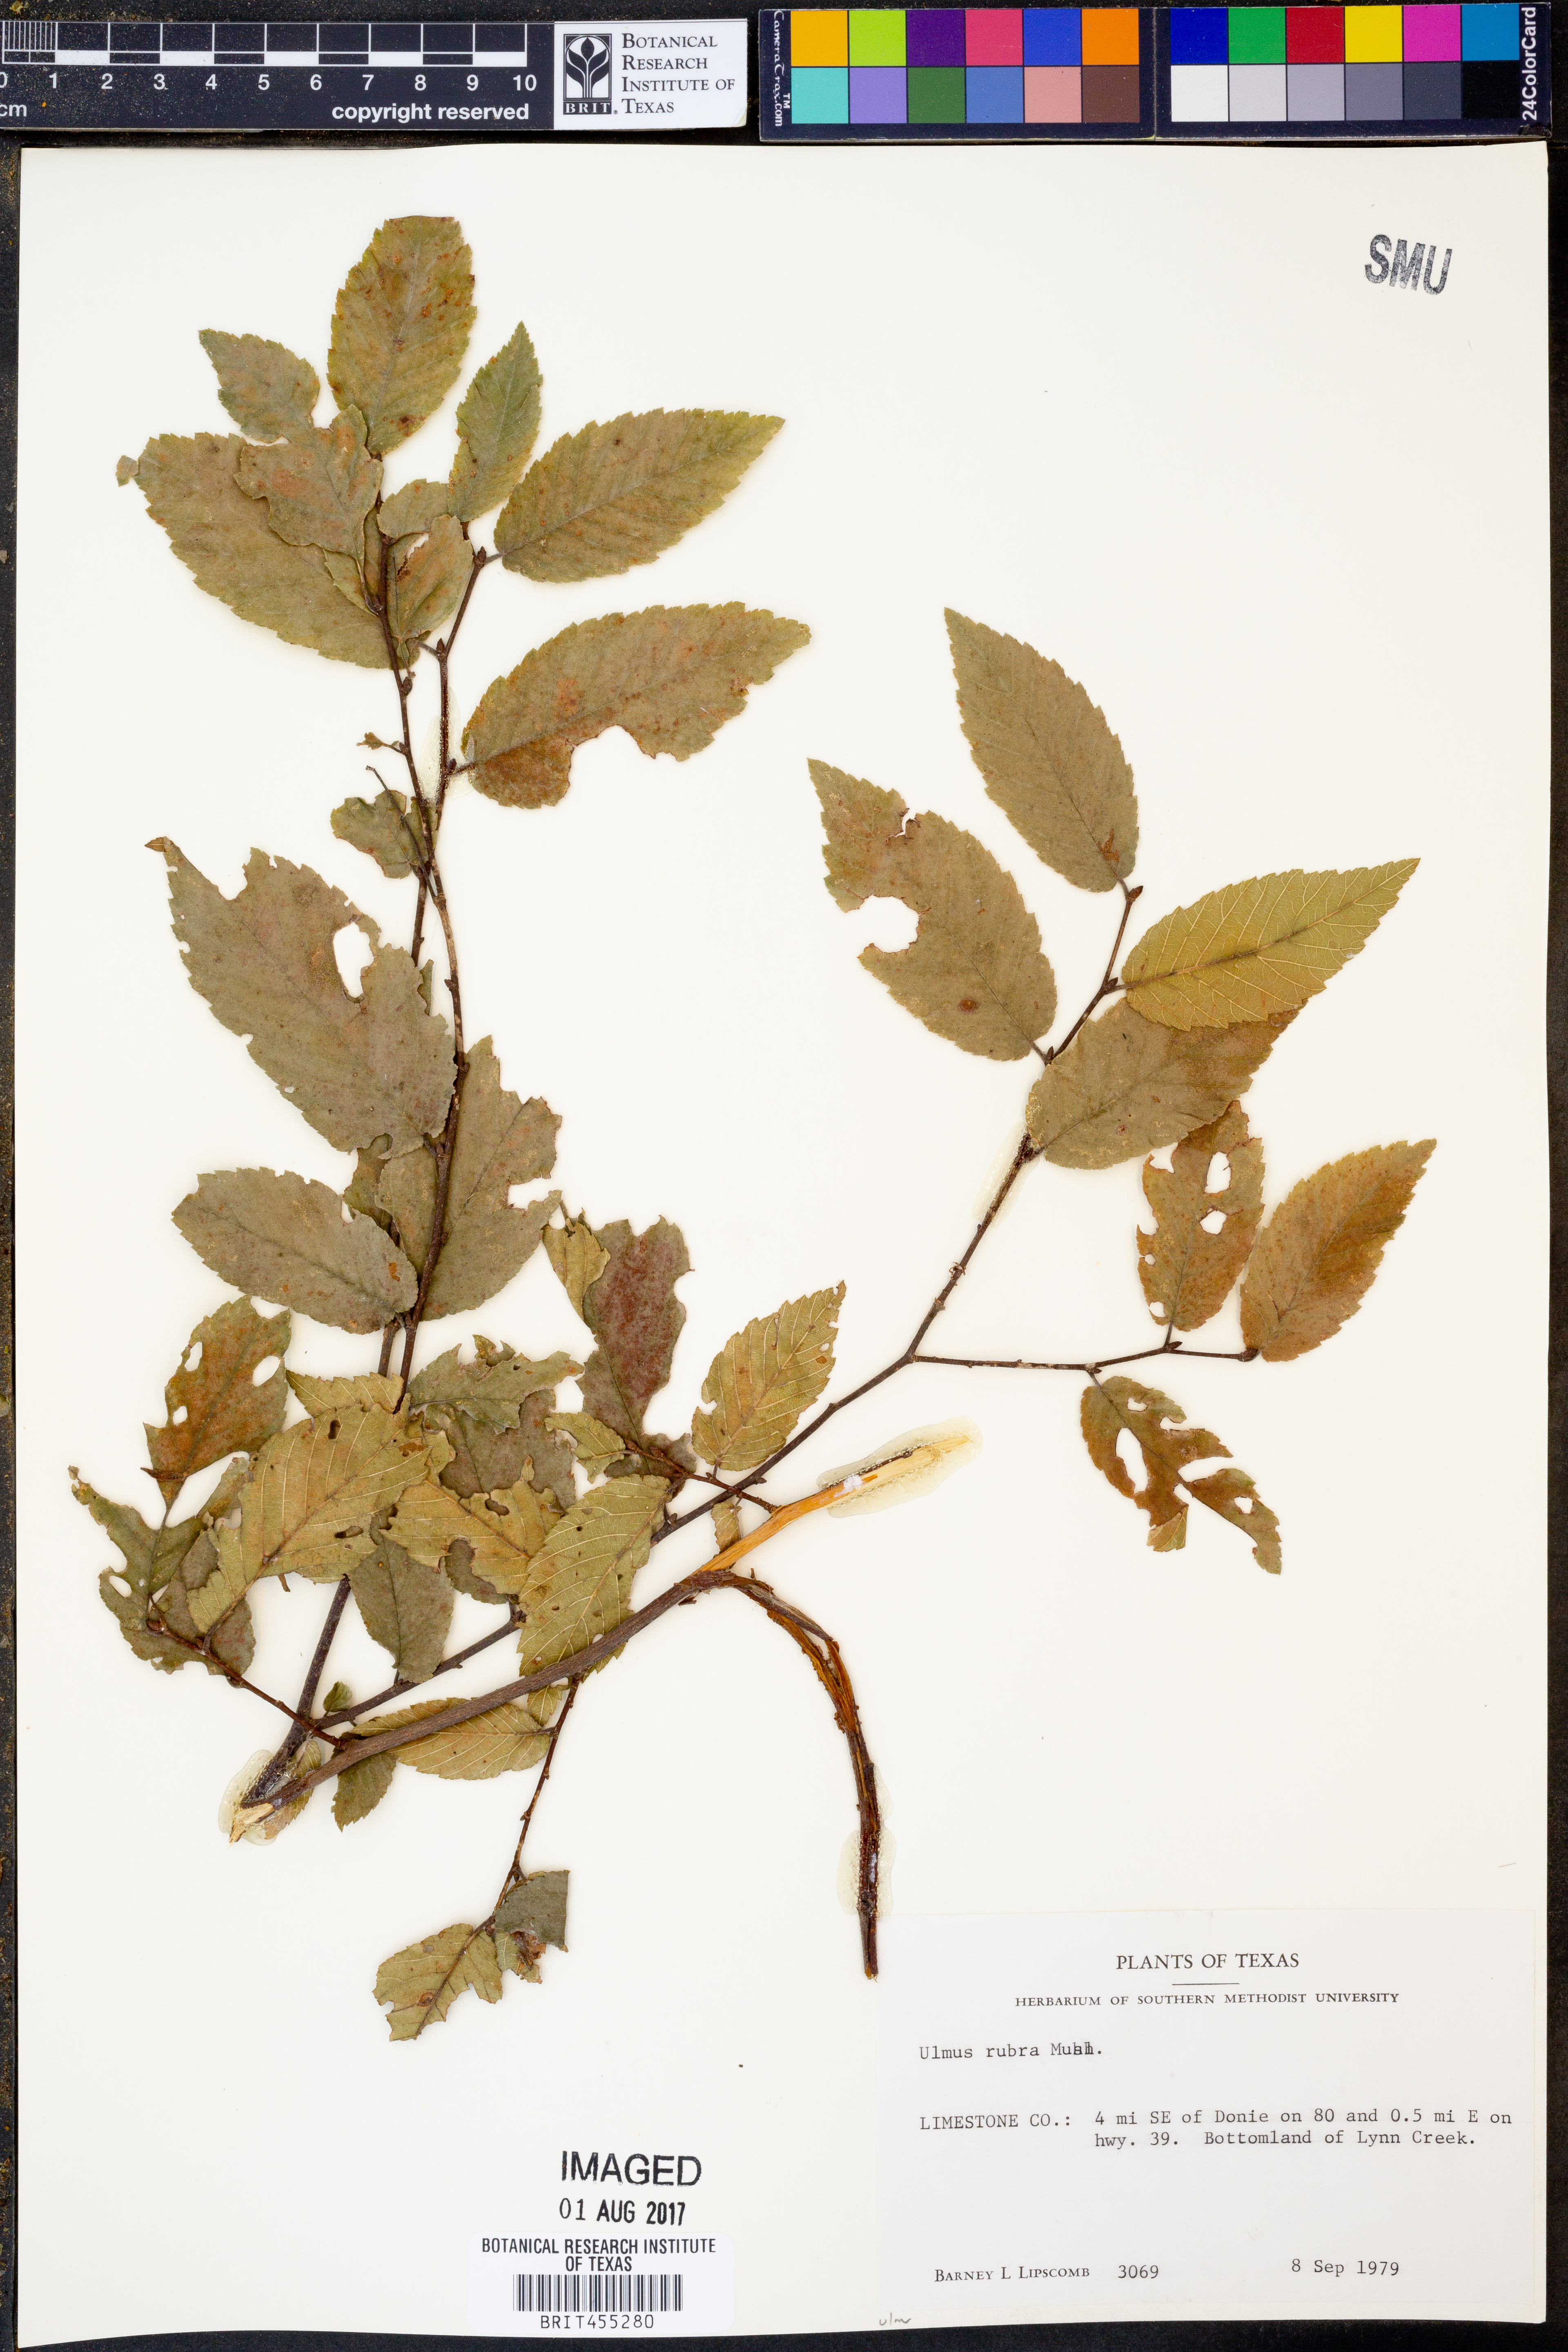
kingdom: Plantae
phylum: Tracheophyta
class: Magnoliopsida
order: Rosales
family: Ulmaceae
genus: Ulmus
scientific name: Ulmus rubra
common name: Slippery elm
